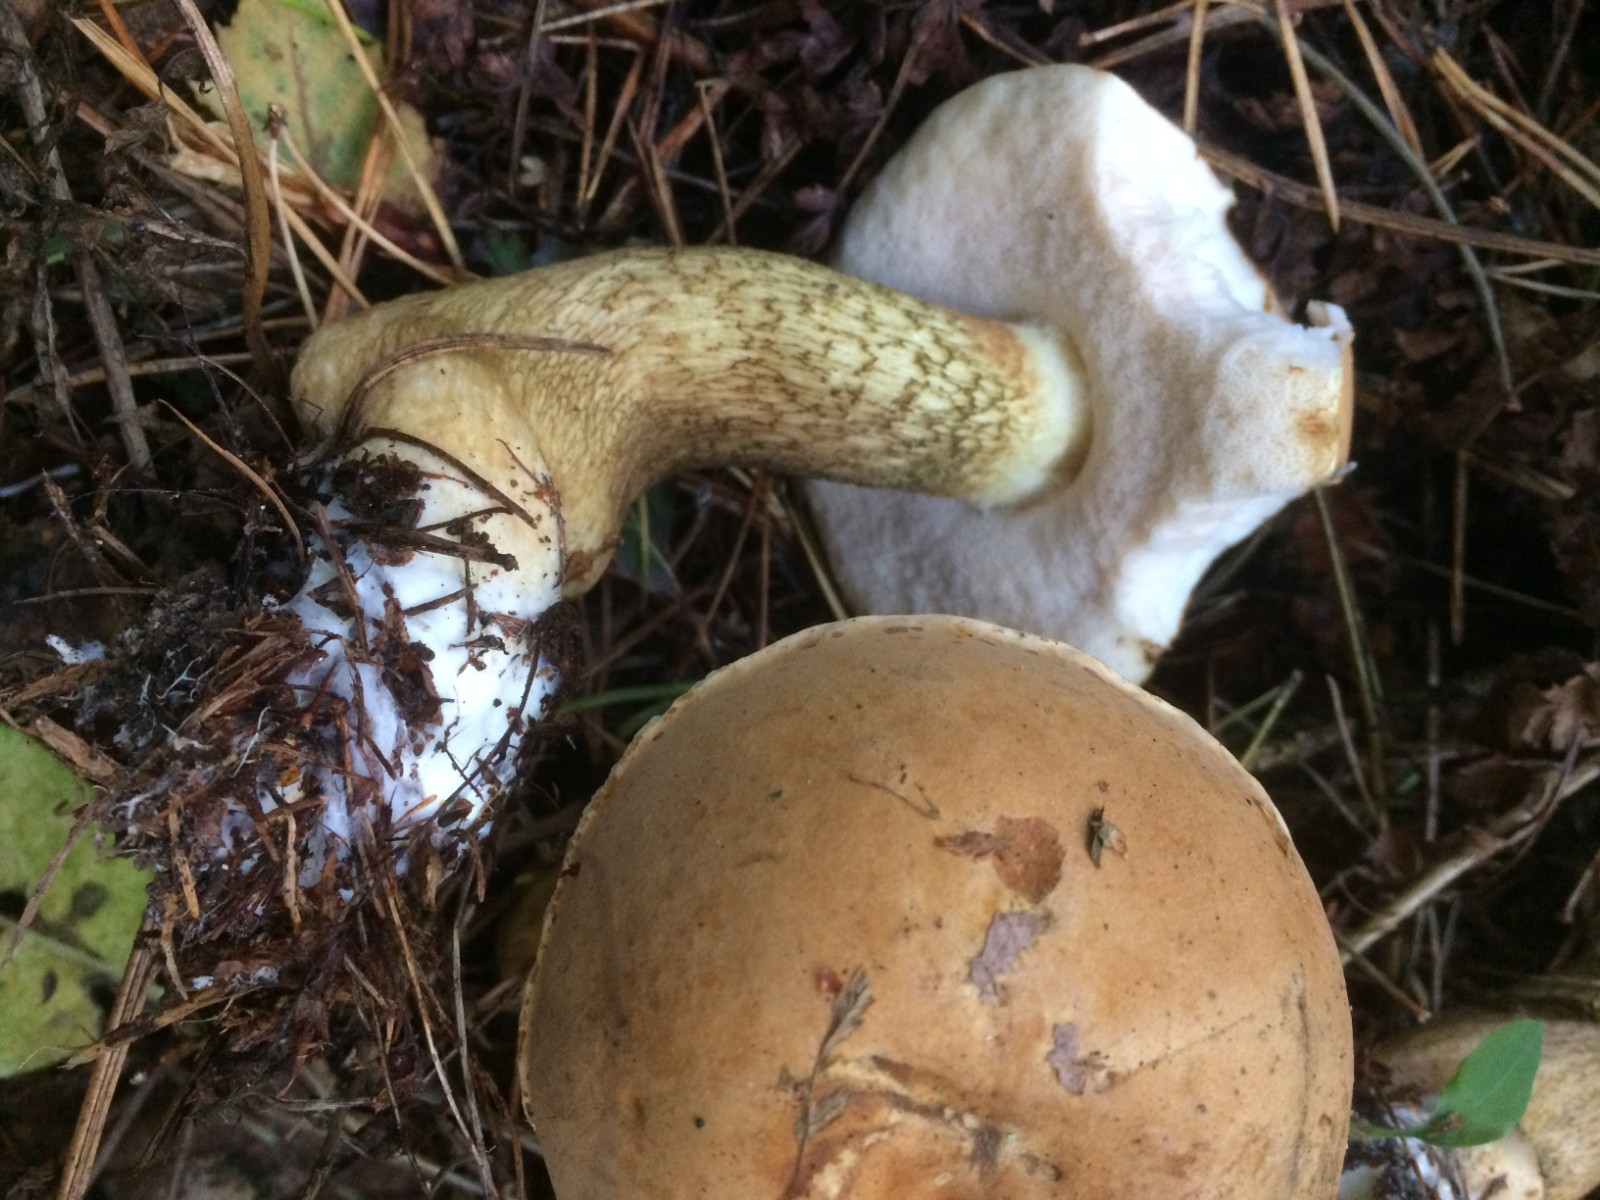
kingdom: Fungi
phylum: Basidiomycota
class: Agaricomycetes
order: Boletales
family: Boletaceae
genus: Tylopilus
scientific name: Tylopilus felleus
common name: galderørhat
